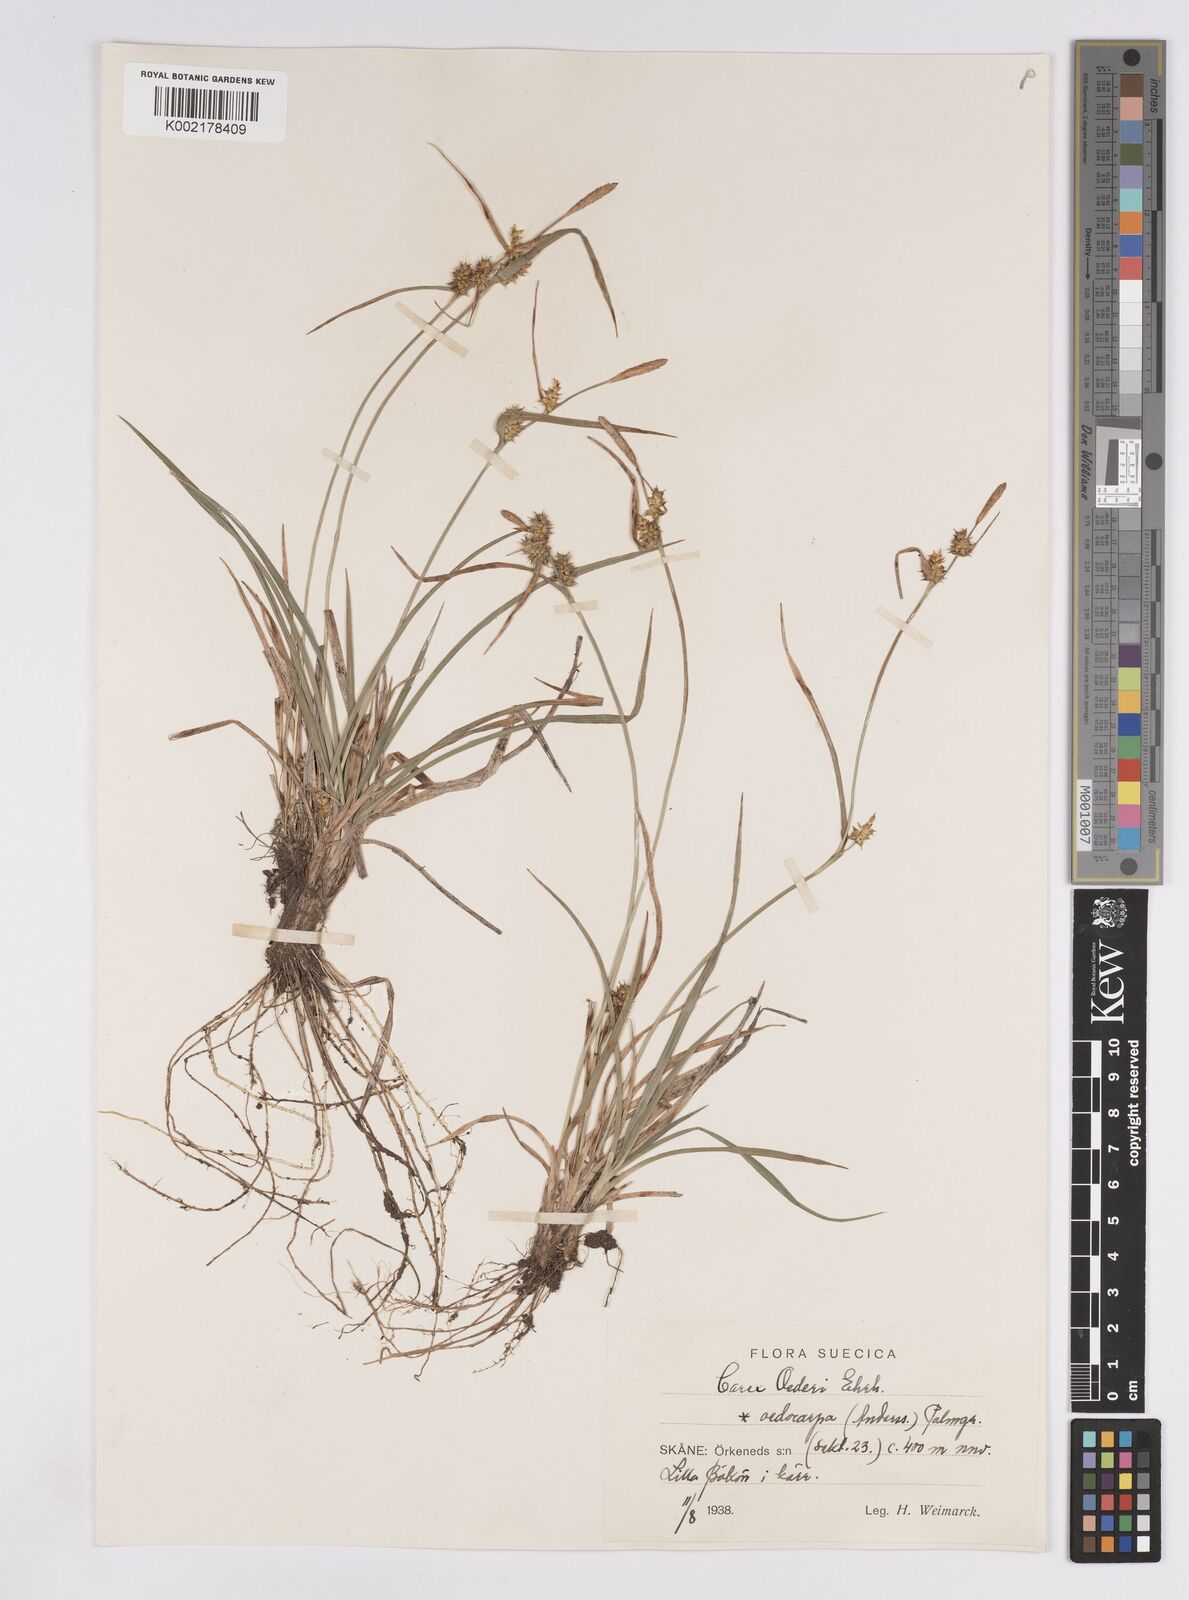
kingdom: Plantae
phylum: Tracheophyta
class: Liliopsida
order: Poales
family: Cyperaceae
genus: Carex
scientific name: Carex demissa
